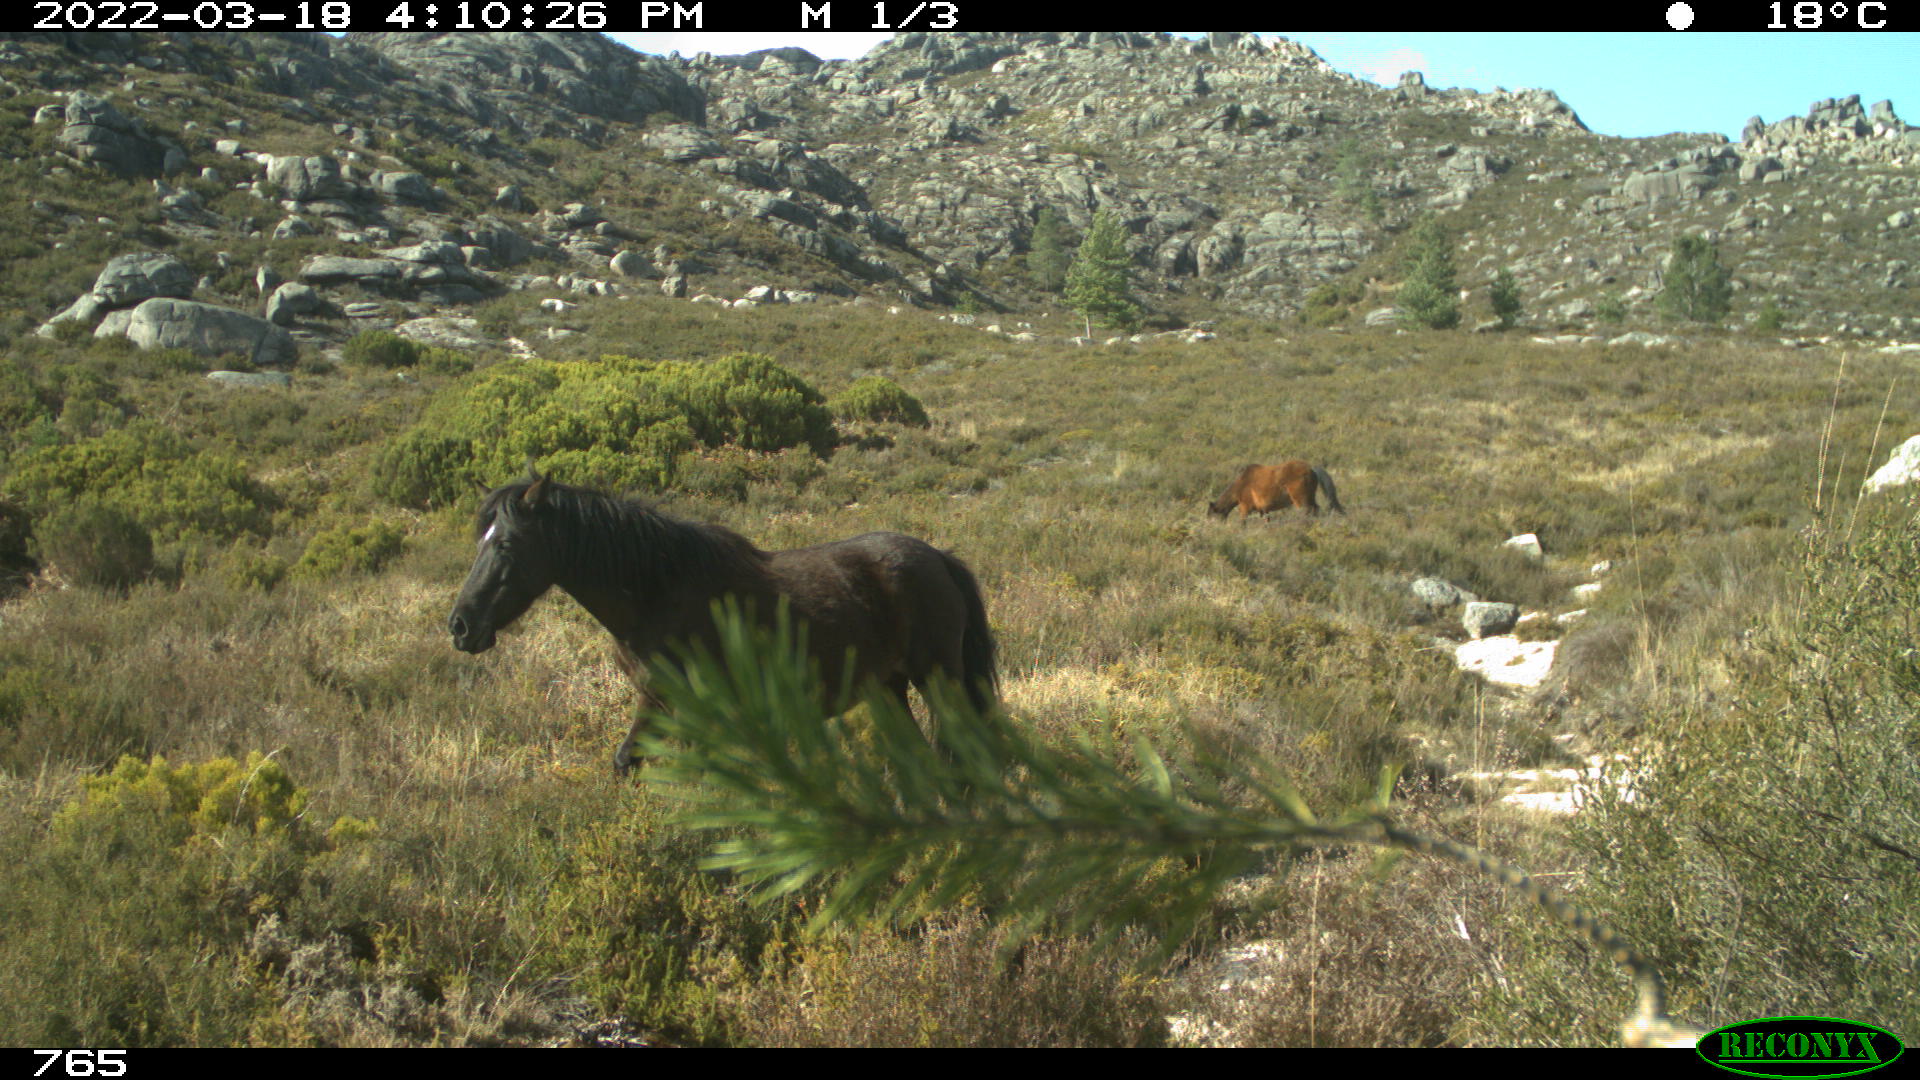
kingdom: Animalia
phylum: Chordata
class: Mammalia
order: Perissodactyla
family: Equidae
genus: Equus
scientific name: Equus caballus
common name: Horse
